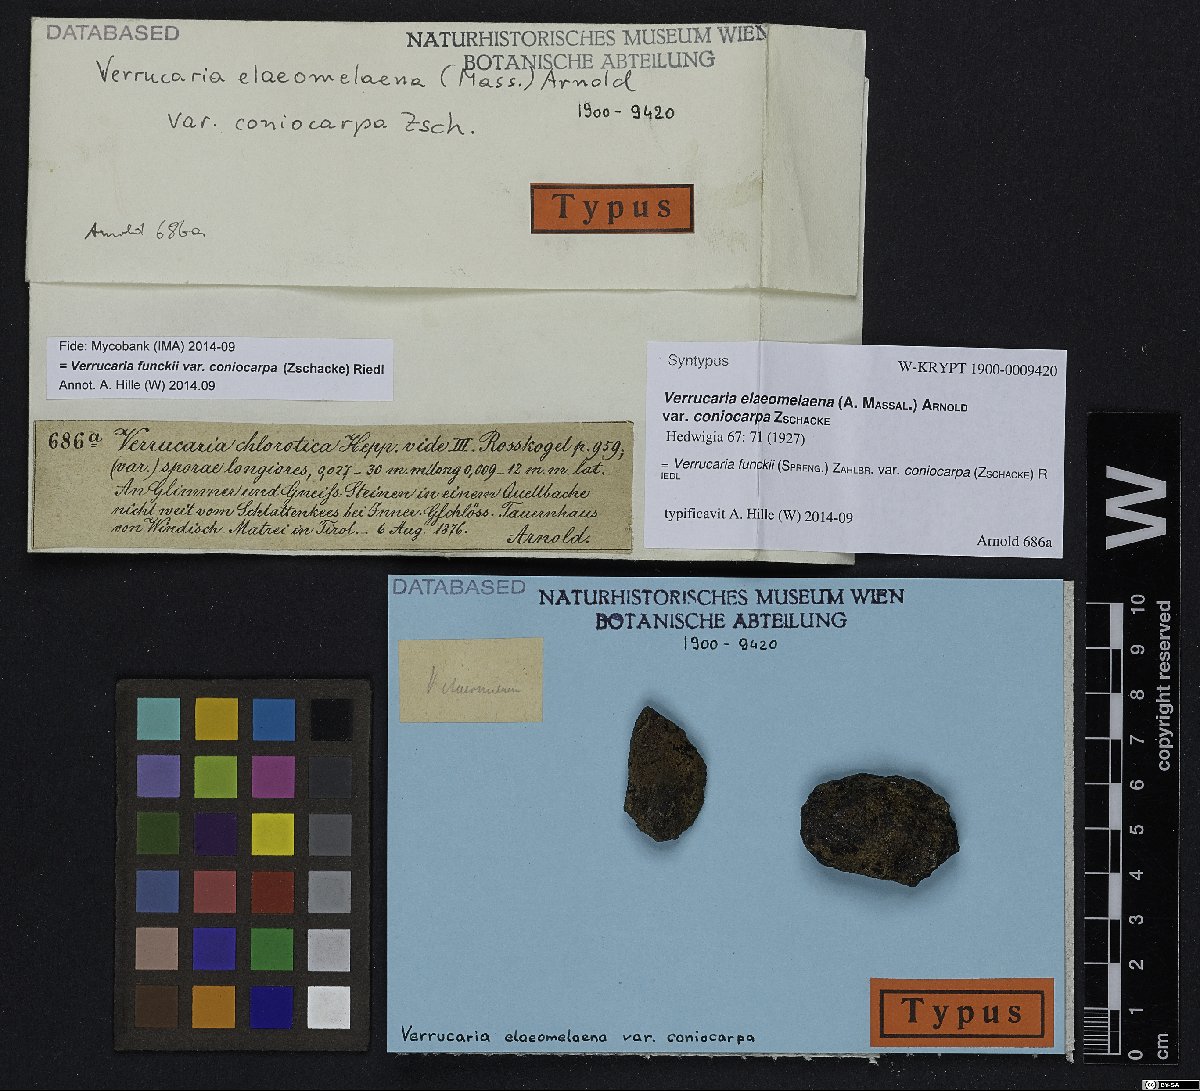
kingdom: Fungi
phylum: Ascomycota
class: Eurotiomycetes
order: Verrucariales
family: Verrucariaceae
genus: Verrucaria
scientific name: Verrucaria funckii
